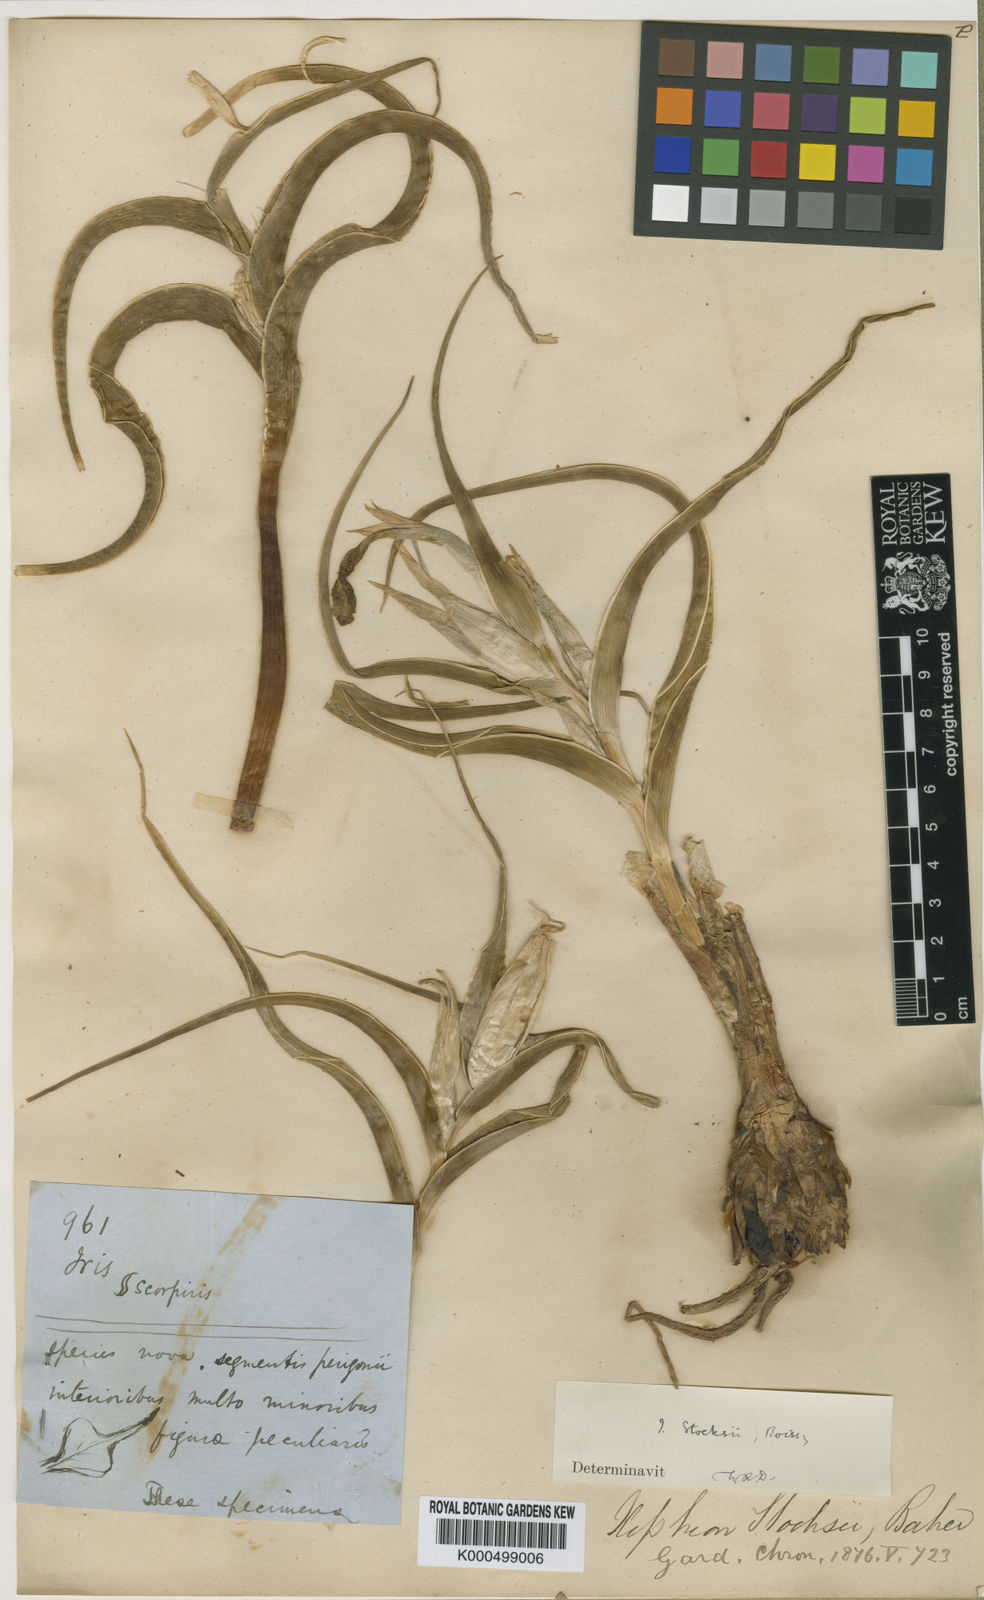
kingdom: Plantae
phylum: Tracheophyta
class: Liliopsida
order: Asparagales
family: Iridaceae
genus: Iris
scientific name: Iris stocksii
